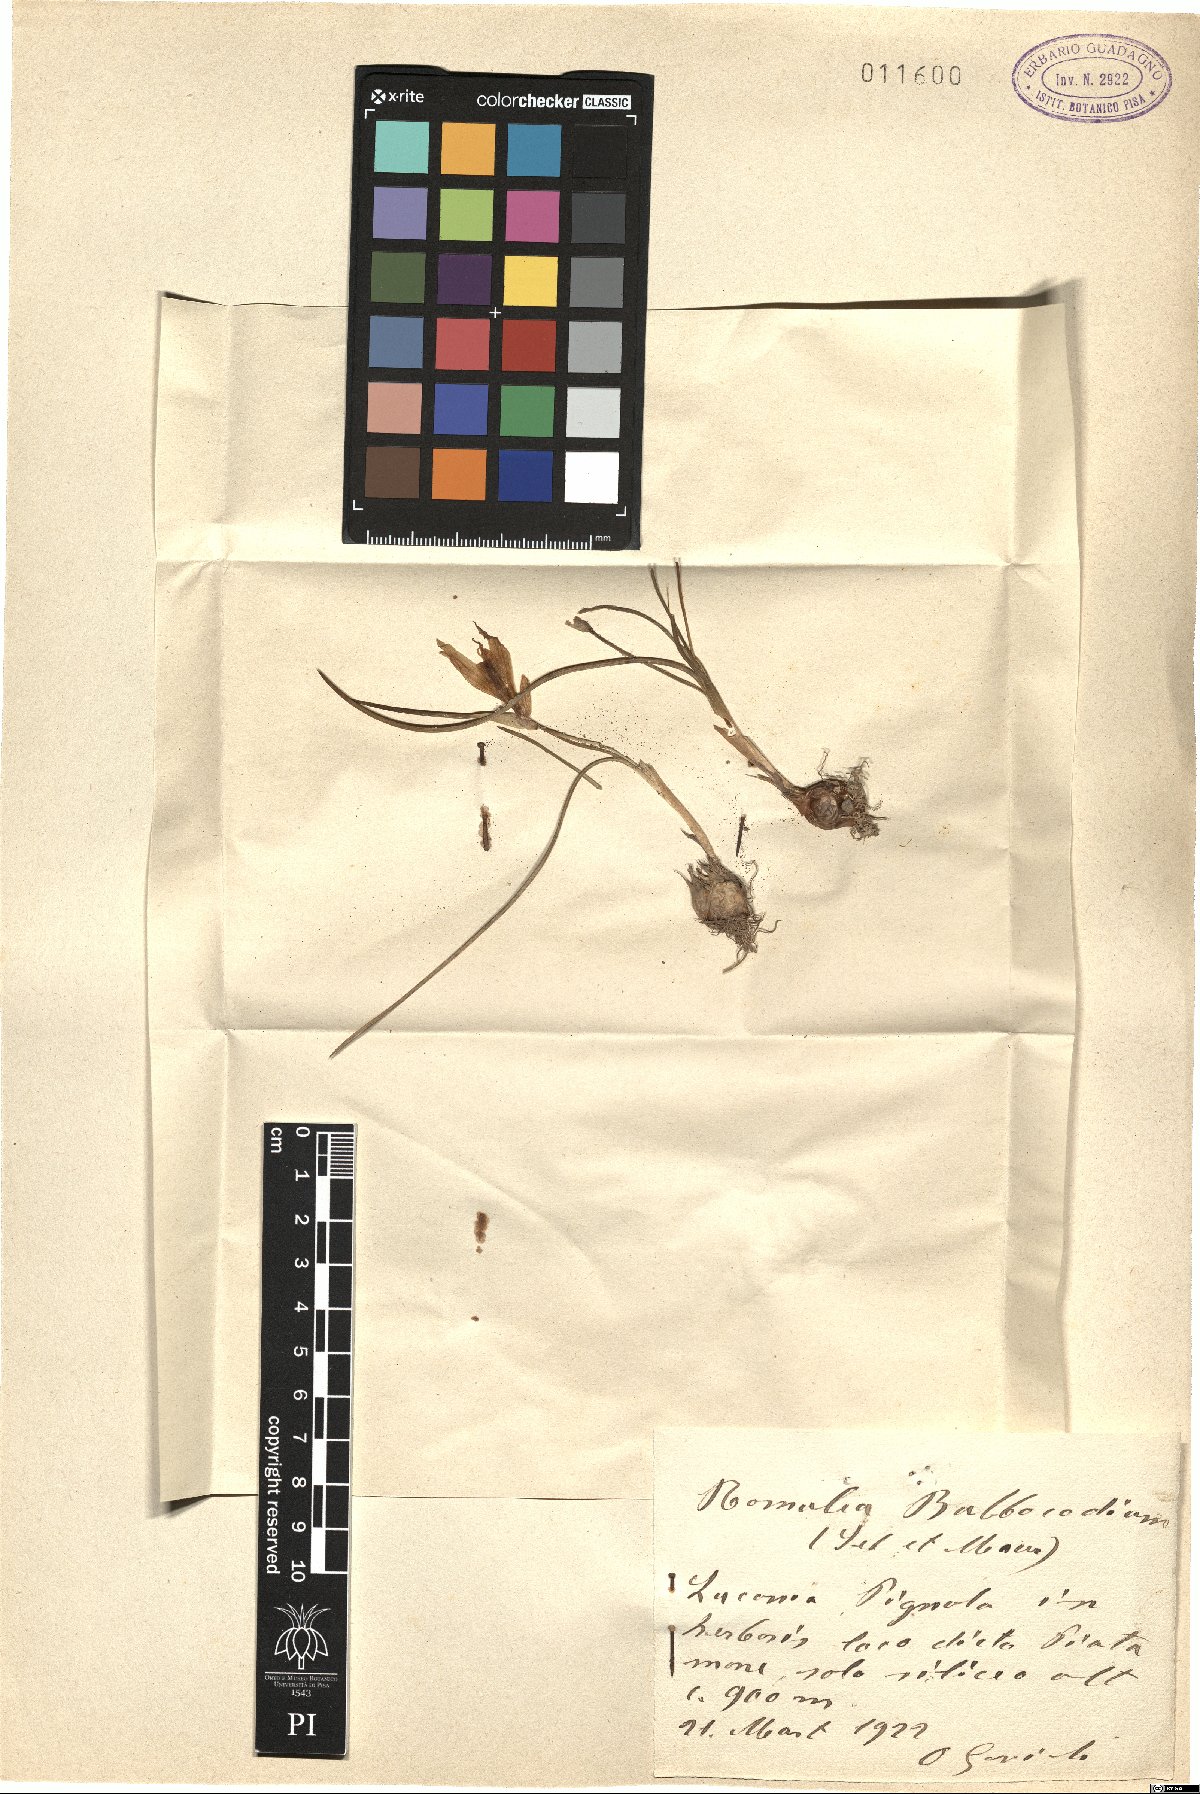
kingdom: Plantae
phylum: Tracheophyta
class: Liliopsida
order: Asparagales
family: Iridaceae
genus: Romulea
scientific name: Romulea bulbocodium
